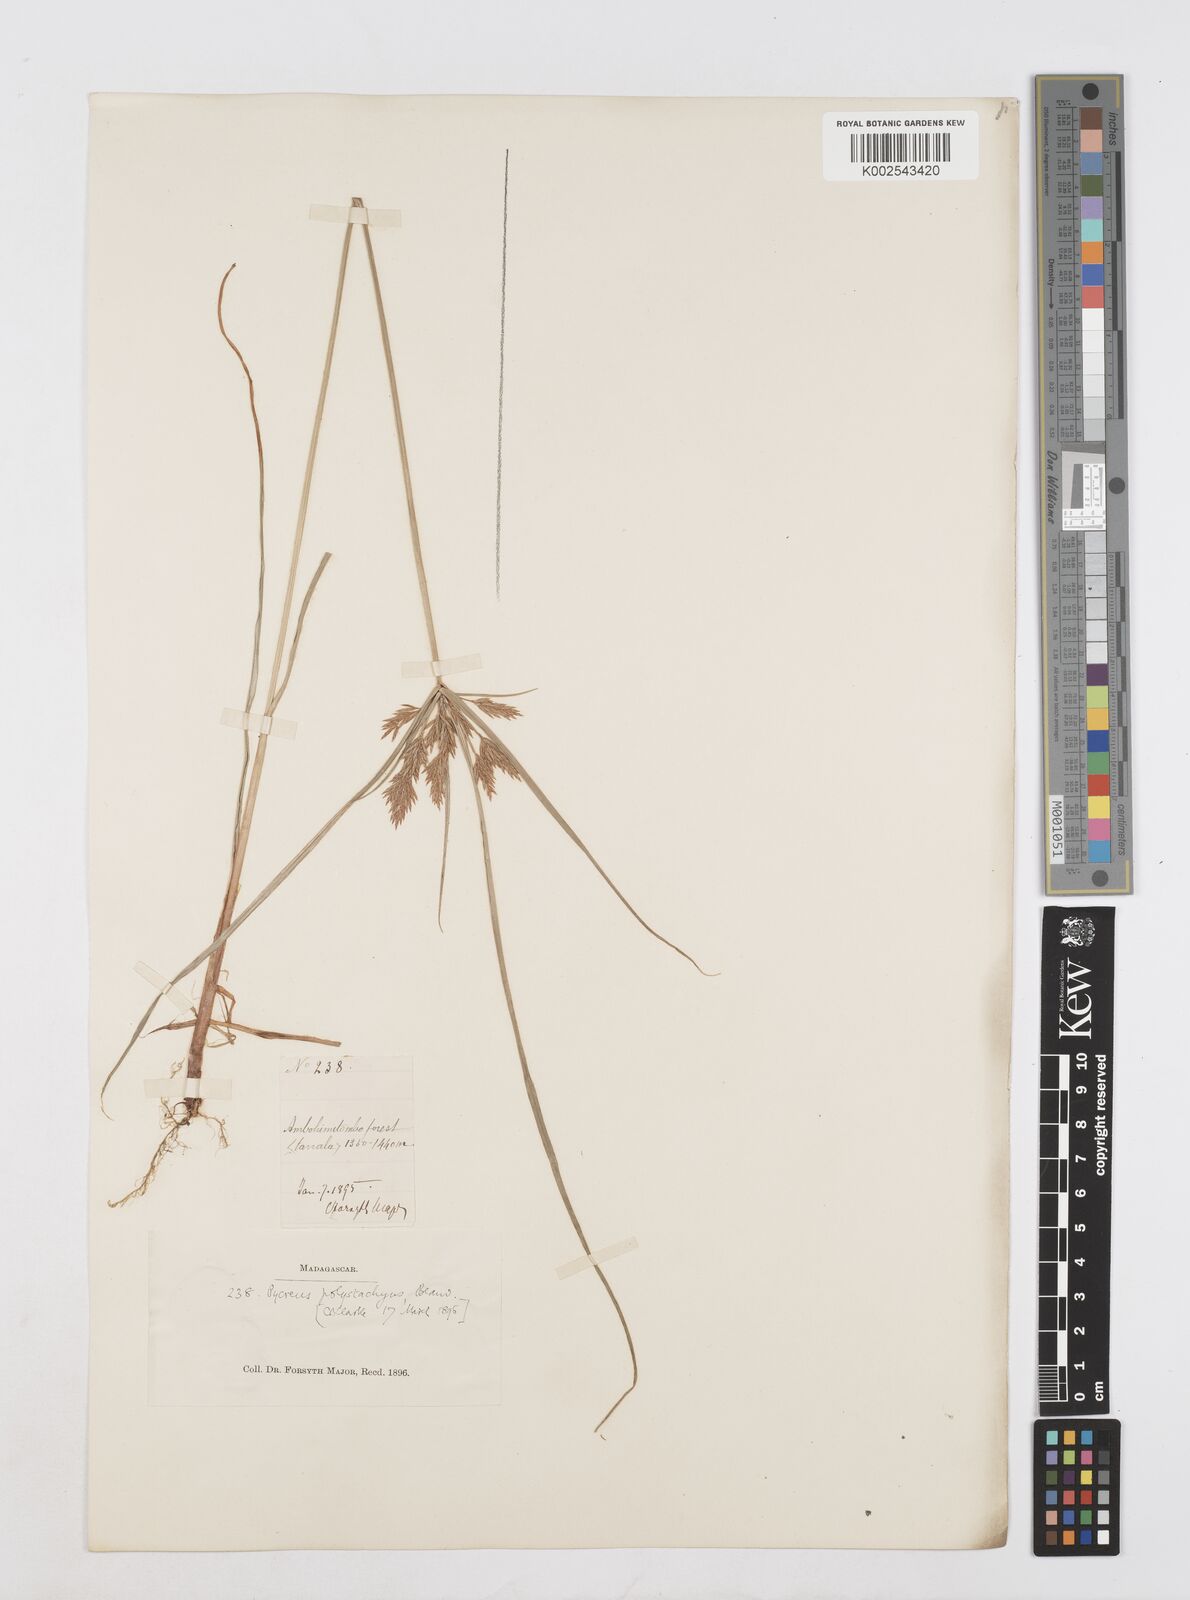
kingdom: Plantae
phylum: Tracheophyta
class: Liliopsida
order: Poales
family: Cyperaceae
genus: Cyperus
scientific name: Cyperus polystachyos
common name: Bunchy flat sedge
